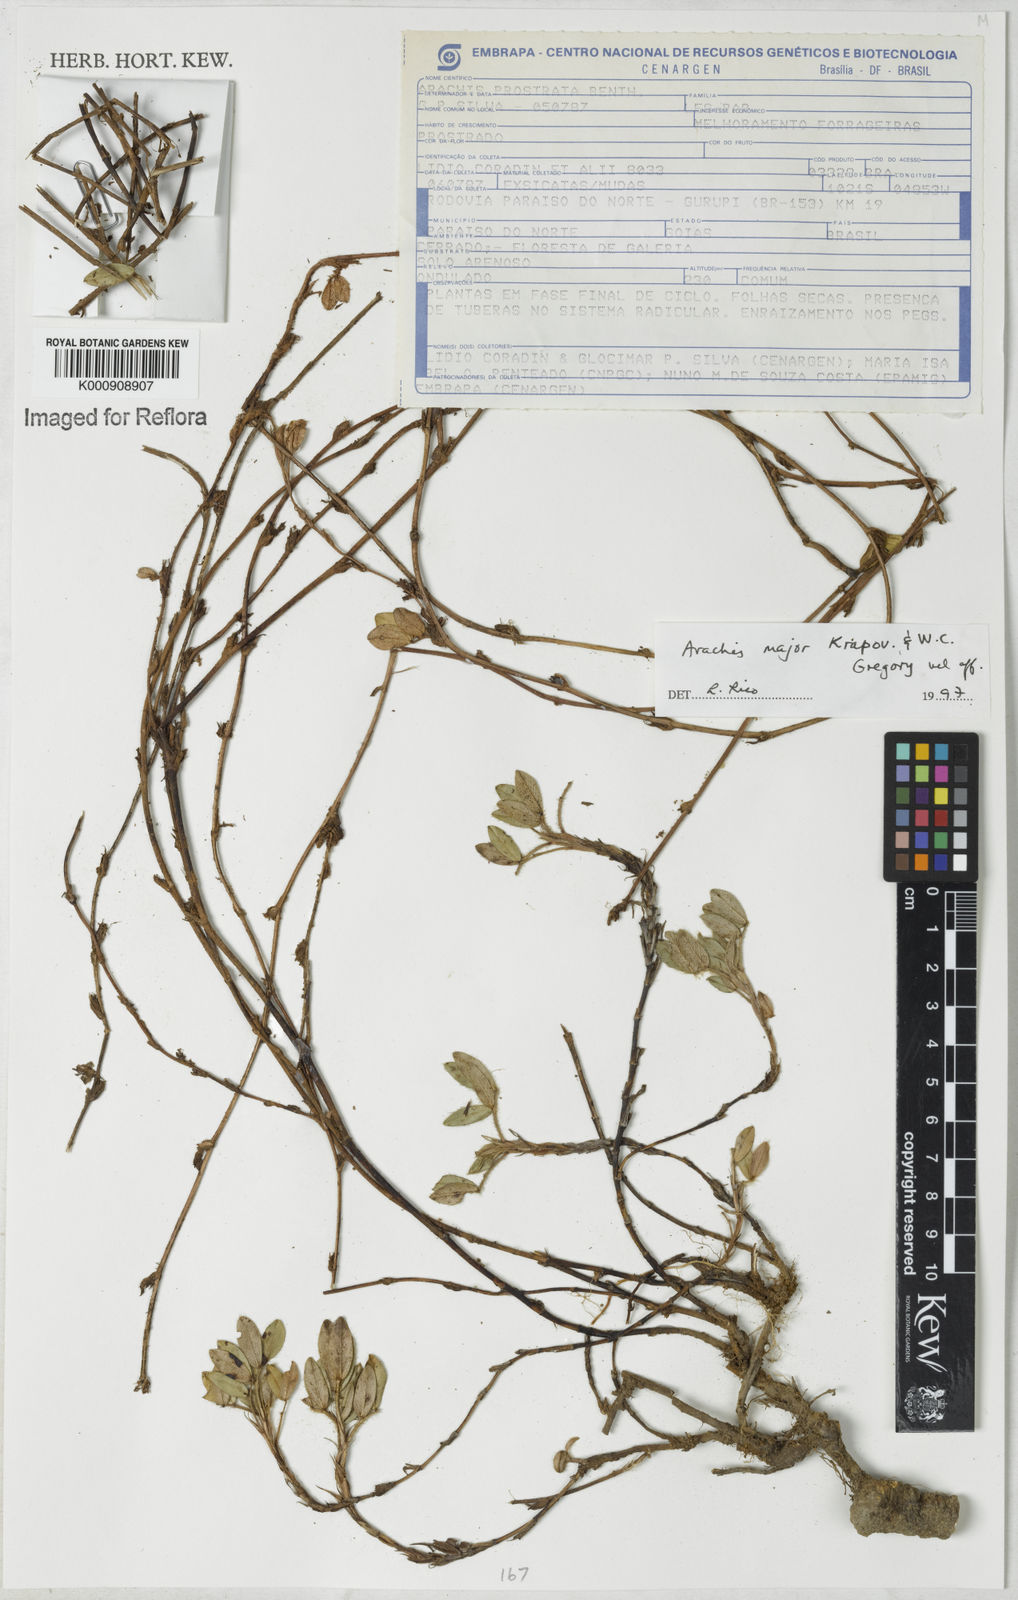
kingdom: Plantae
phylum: Tracheophyta
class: Magnoliopsida
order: Fabales
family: Fabaceae
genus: Arachis
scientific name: Arachis major
